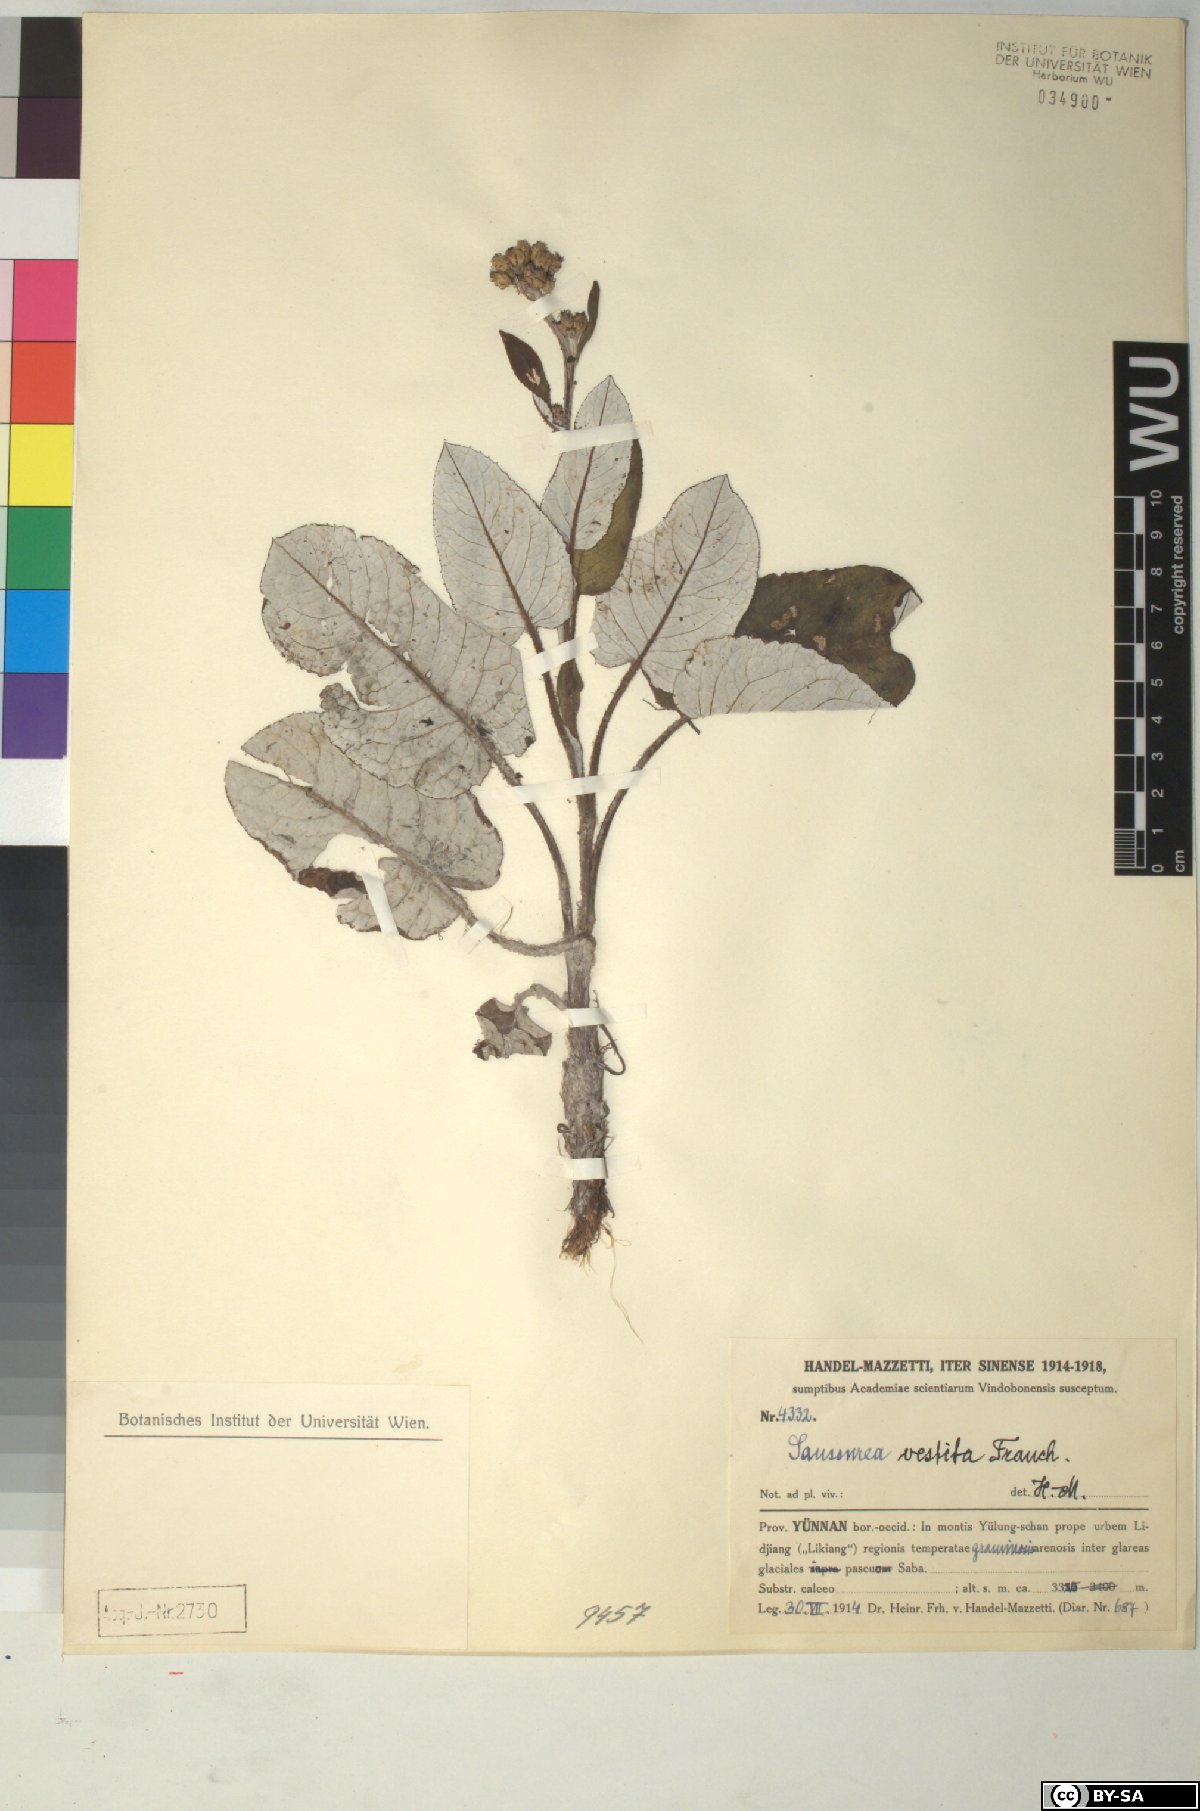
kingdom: Plantae
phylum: Tracheophyta
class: Magnoliopsida
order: Asterales
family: Asteraceae
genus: Saussurea
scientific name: Saussurea vestita
